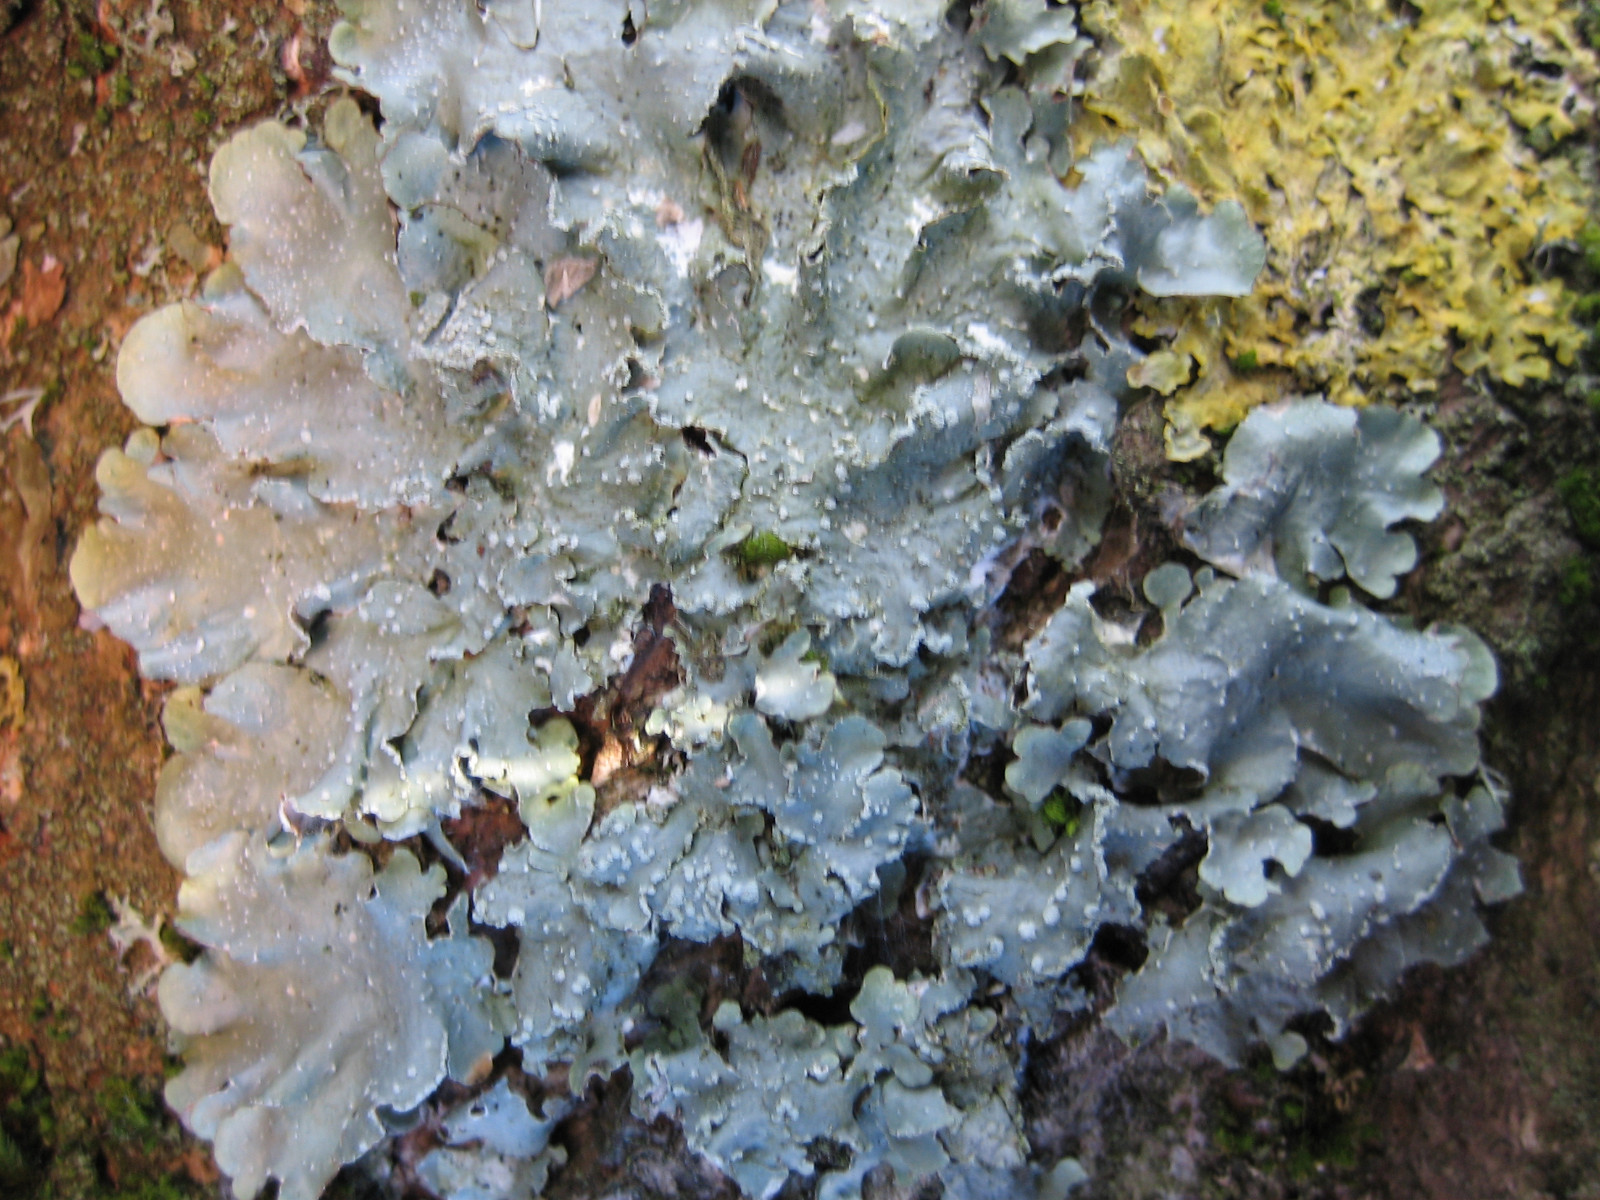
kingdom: Fungi
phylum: Ascomycota
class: Lecanoromycetes
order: Lecanorales
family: Parmeliaceae
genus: Punctelia
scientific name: Punctelia subrudecta
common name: punkt-skållav
